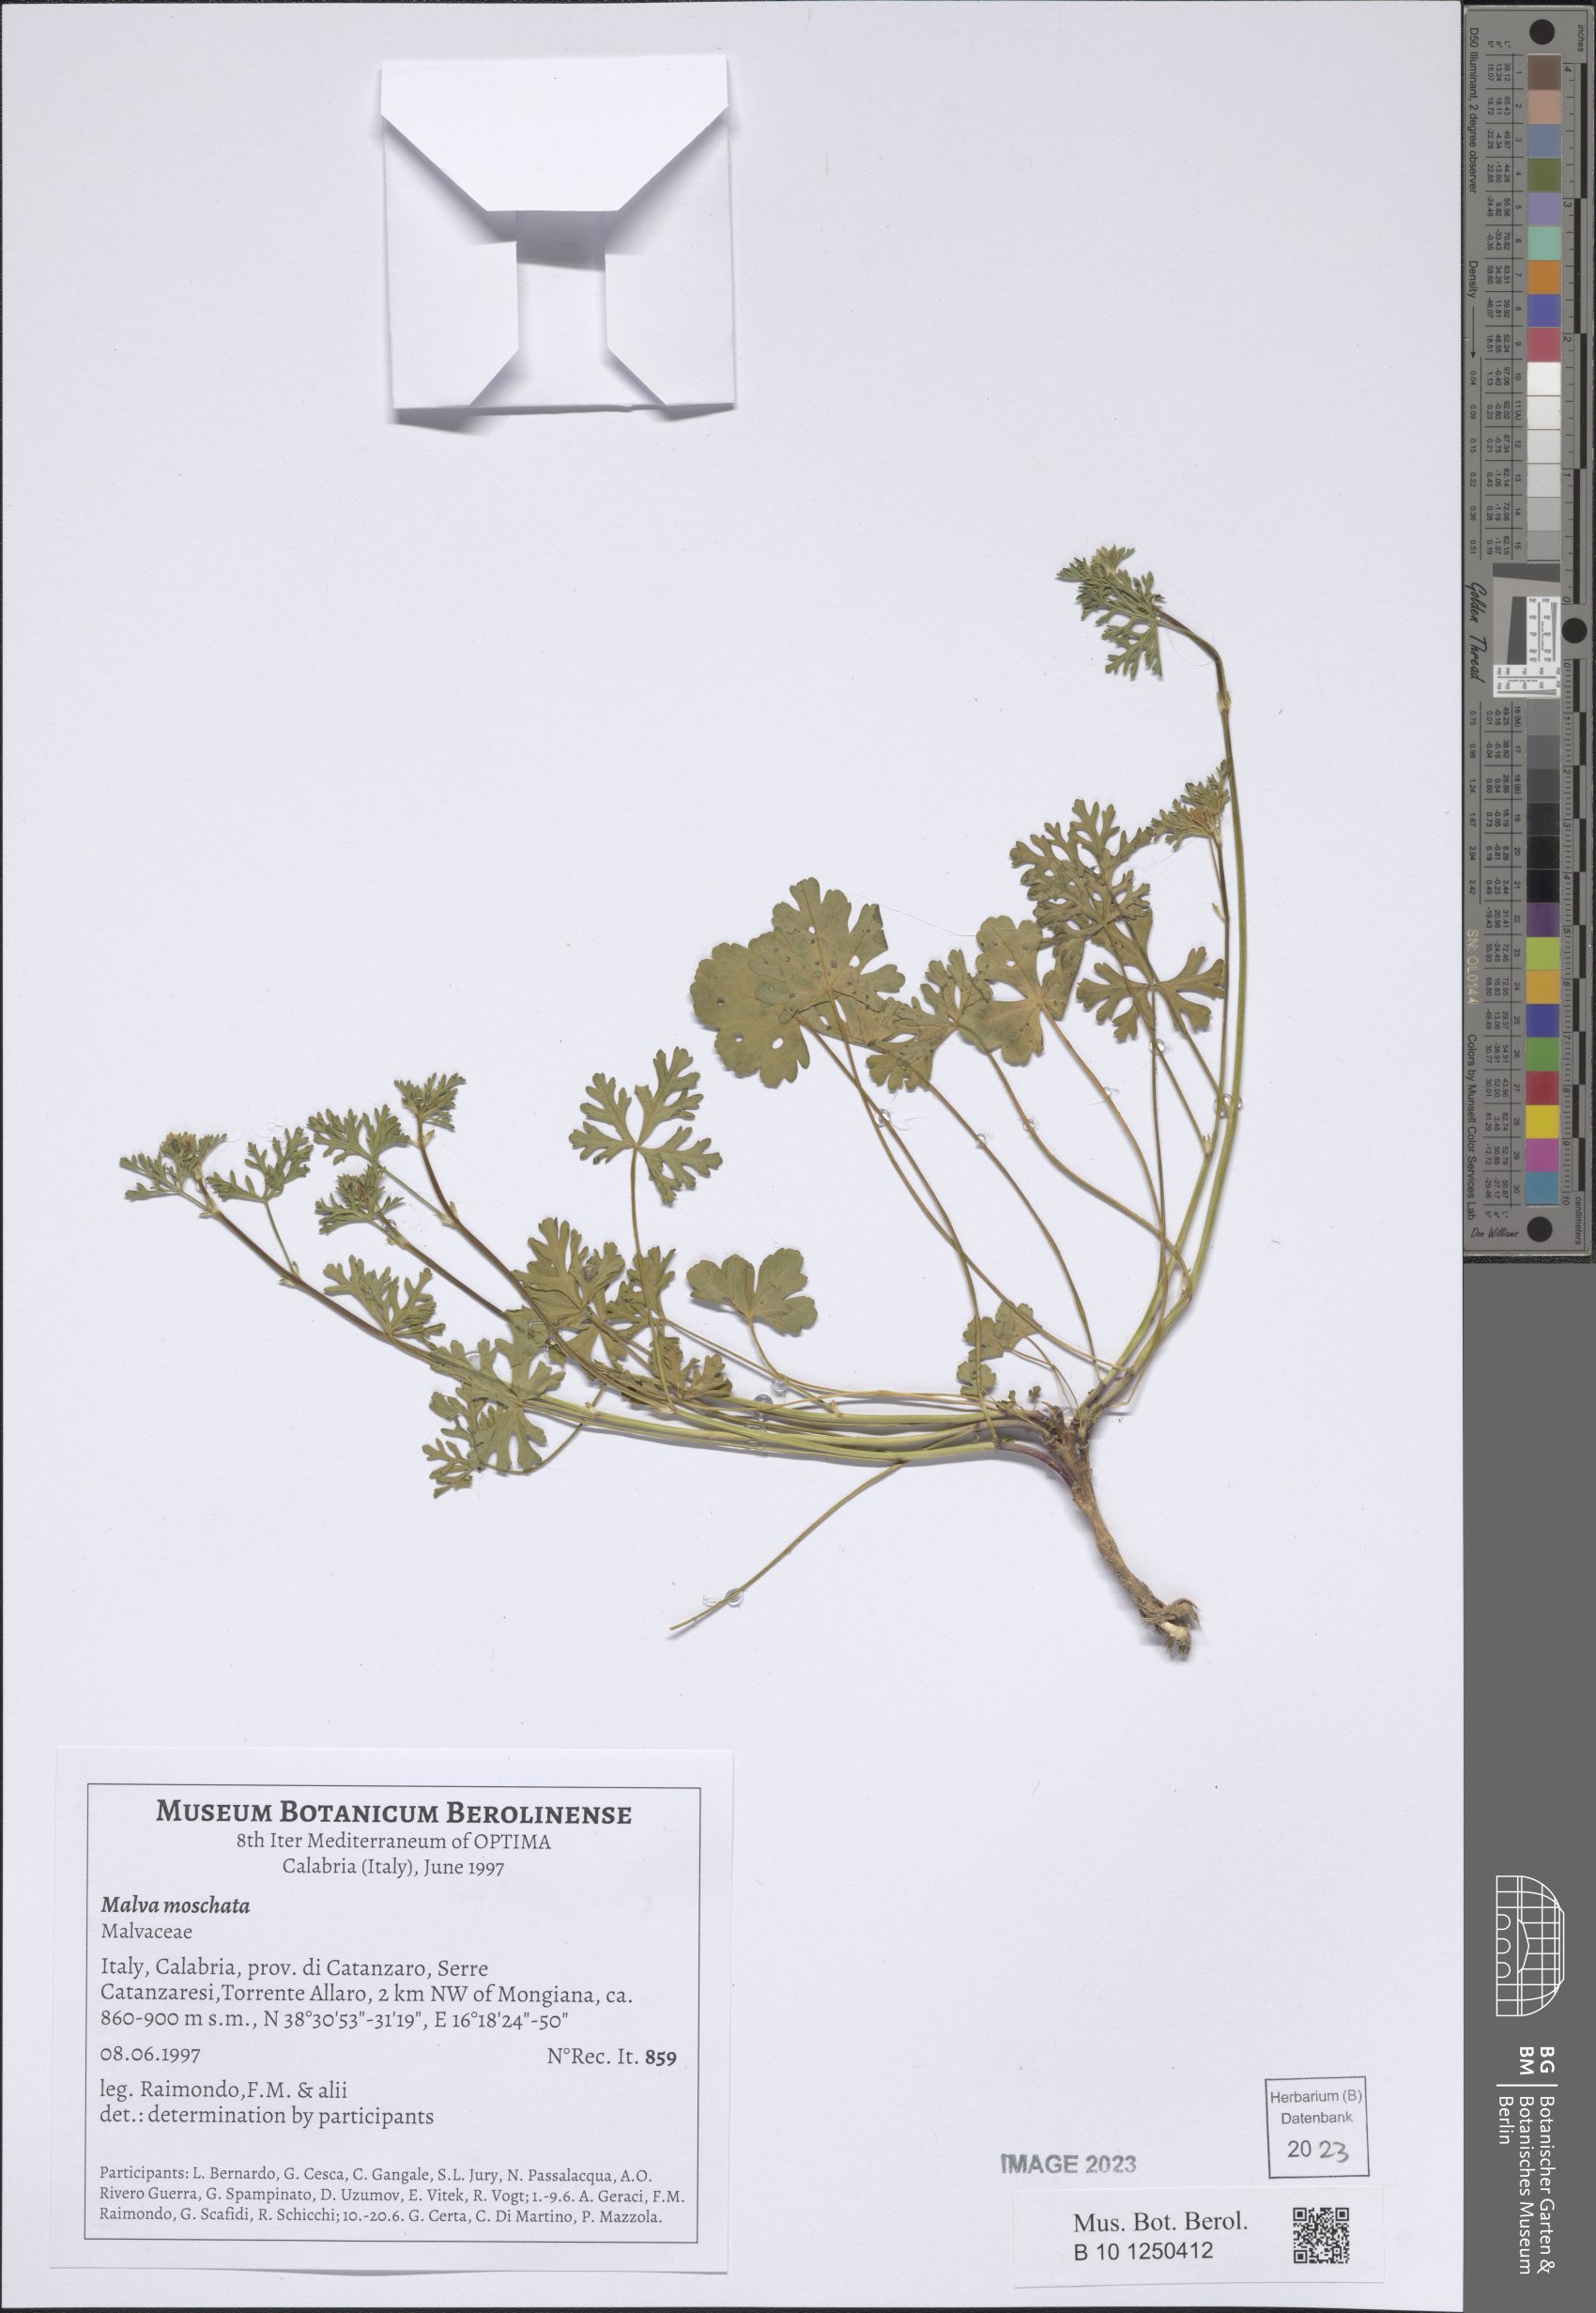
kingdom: Plantae
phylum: Tracheophyta
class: Magnoliopsida
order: Malvales
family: Malvaceae
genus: Malva
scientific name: Malva moschata
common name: Musk mallow
